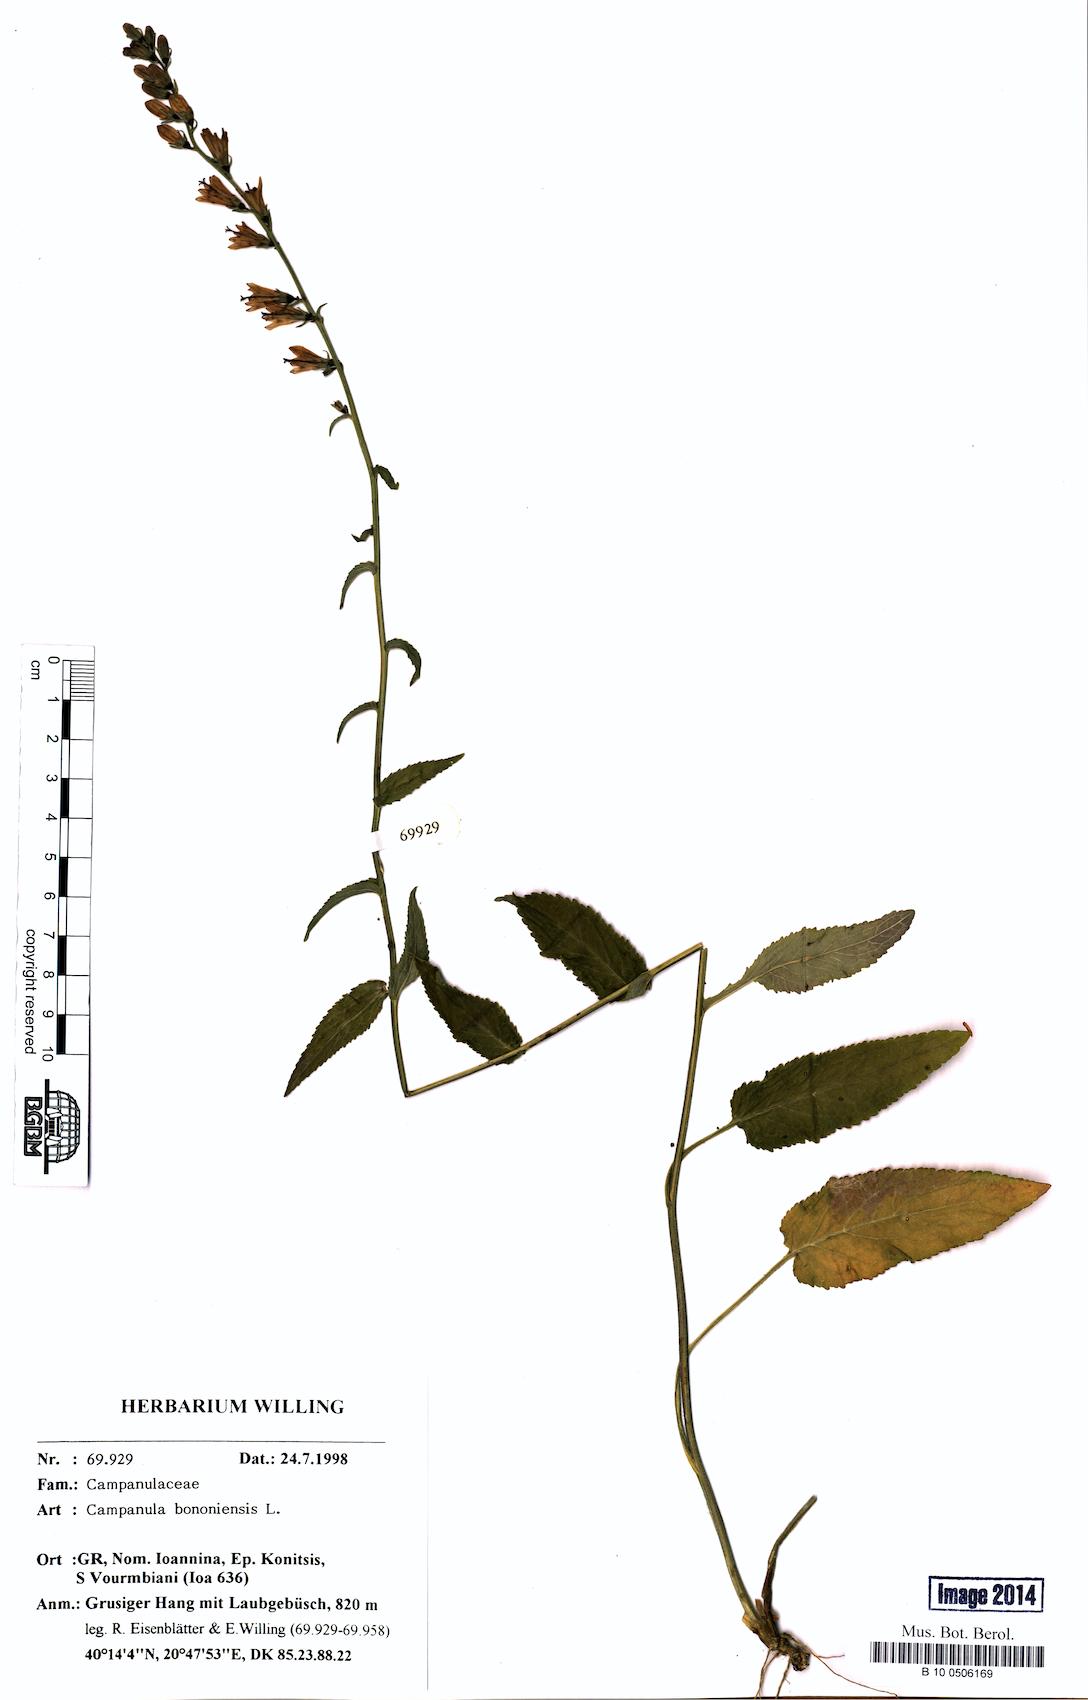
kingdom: Plantae
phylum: Tracheophyta
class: Magnoliopsida
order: Asterales
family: Campanulaceae
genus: Campanula
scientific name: Campanula bononiensis
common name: Pale bellflower
